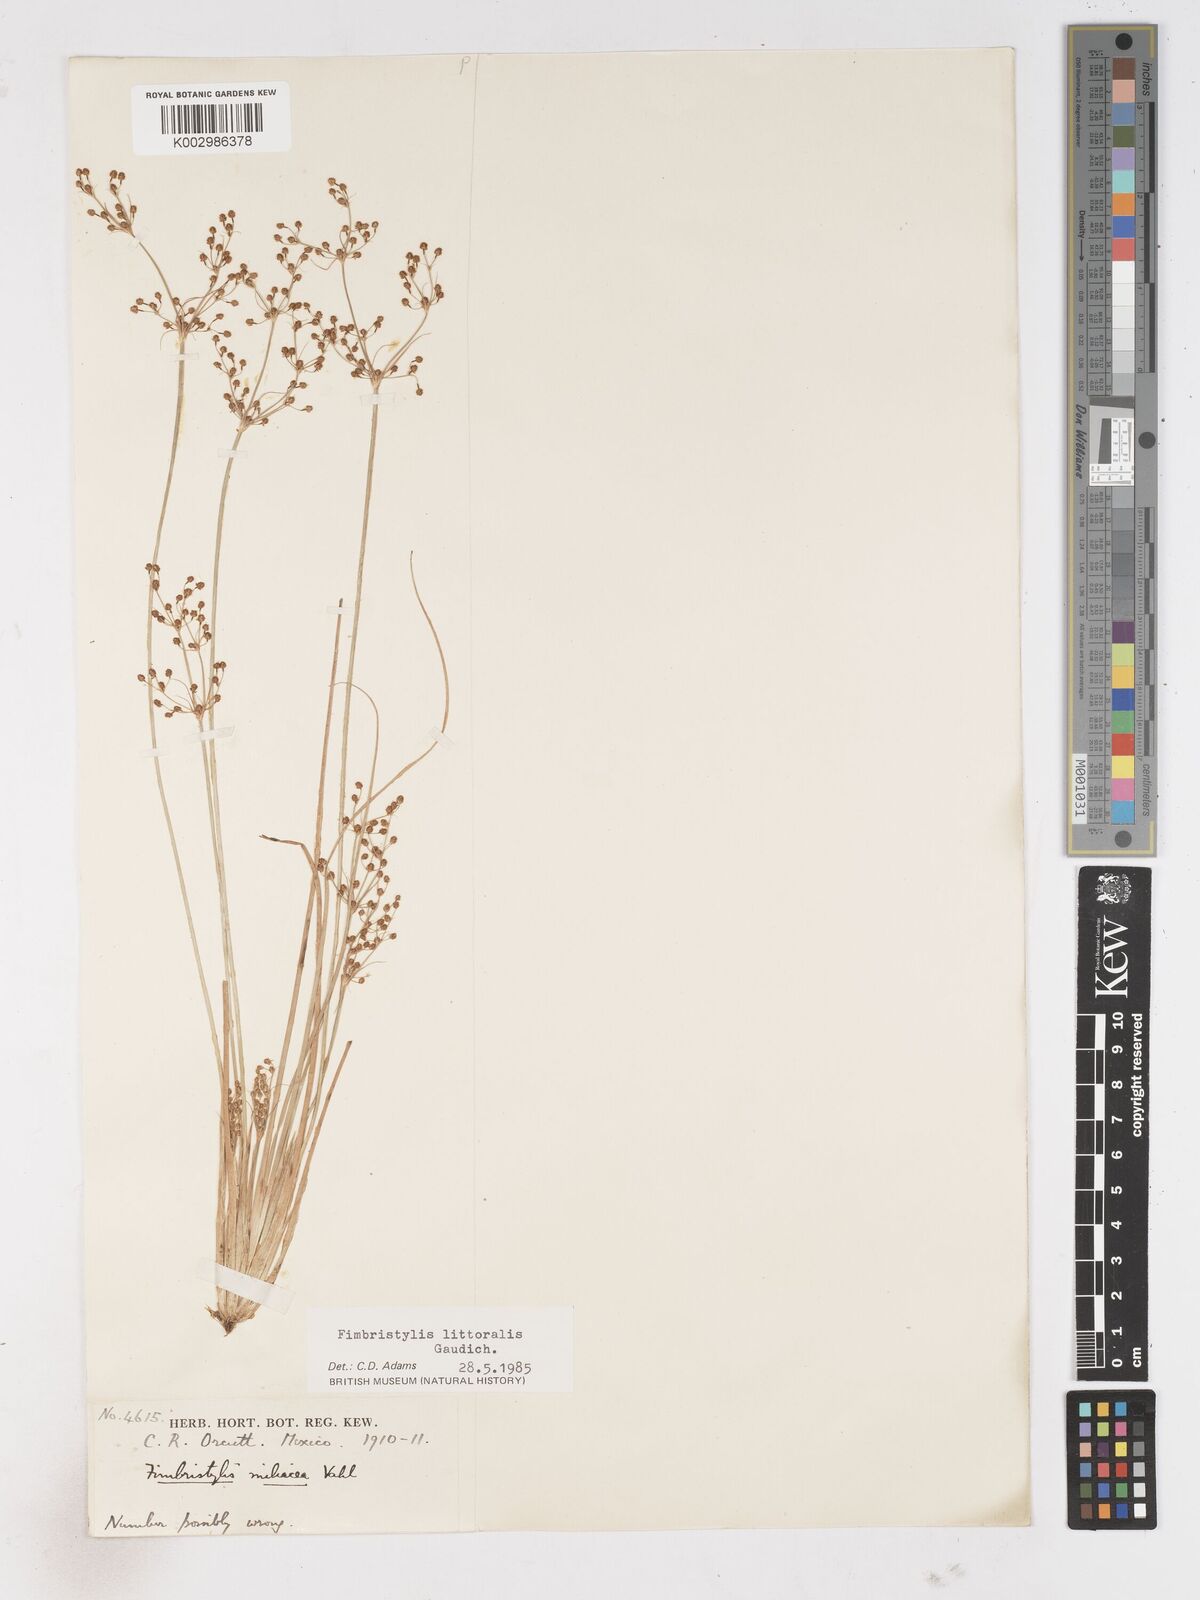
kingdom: Plantae
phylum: Tracheophyta
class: Liliopsida
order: Poales
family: Cyperaceae
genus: Fimbristylis
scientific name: Fimbristylis littoralis
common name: Fimbry
